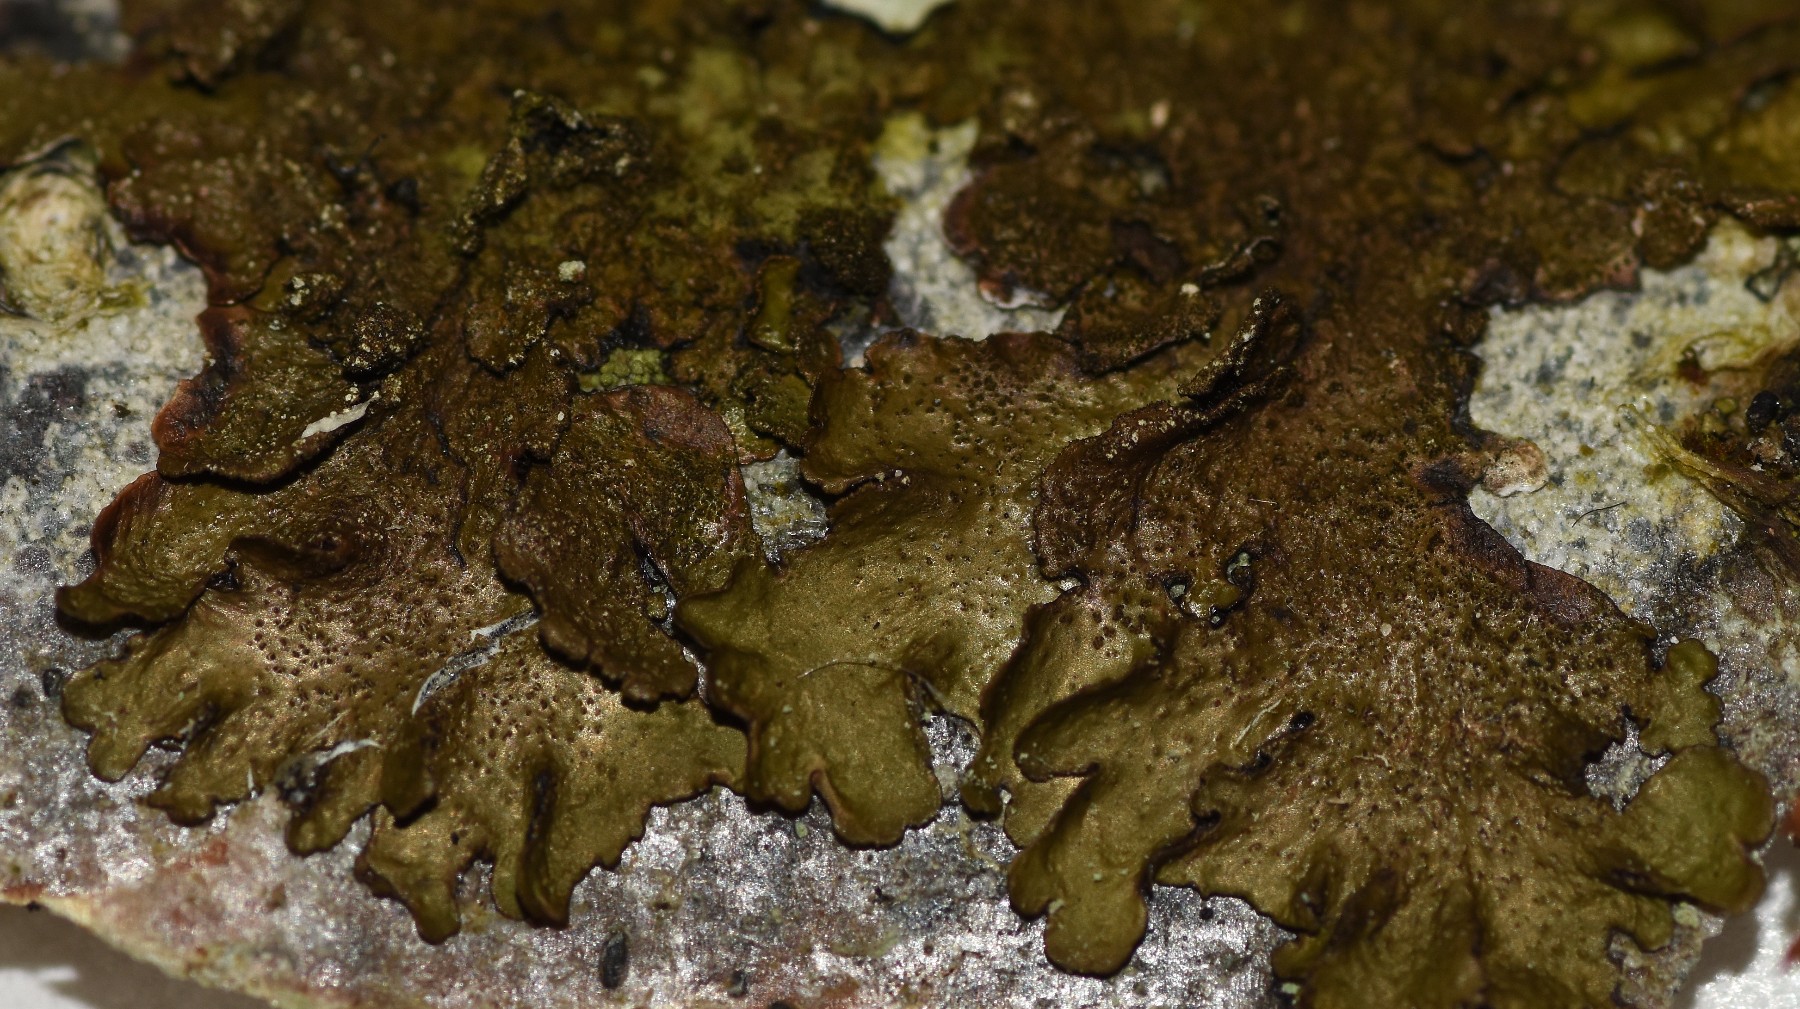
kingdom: Fungi
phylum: Ascomycota
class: Lecanoromycetes
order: Lecanorales
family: Parmeliaceae
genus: Melanelixia
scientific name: Melanelixia glabratula
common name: glinsende skållav
